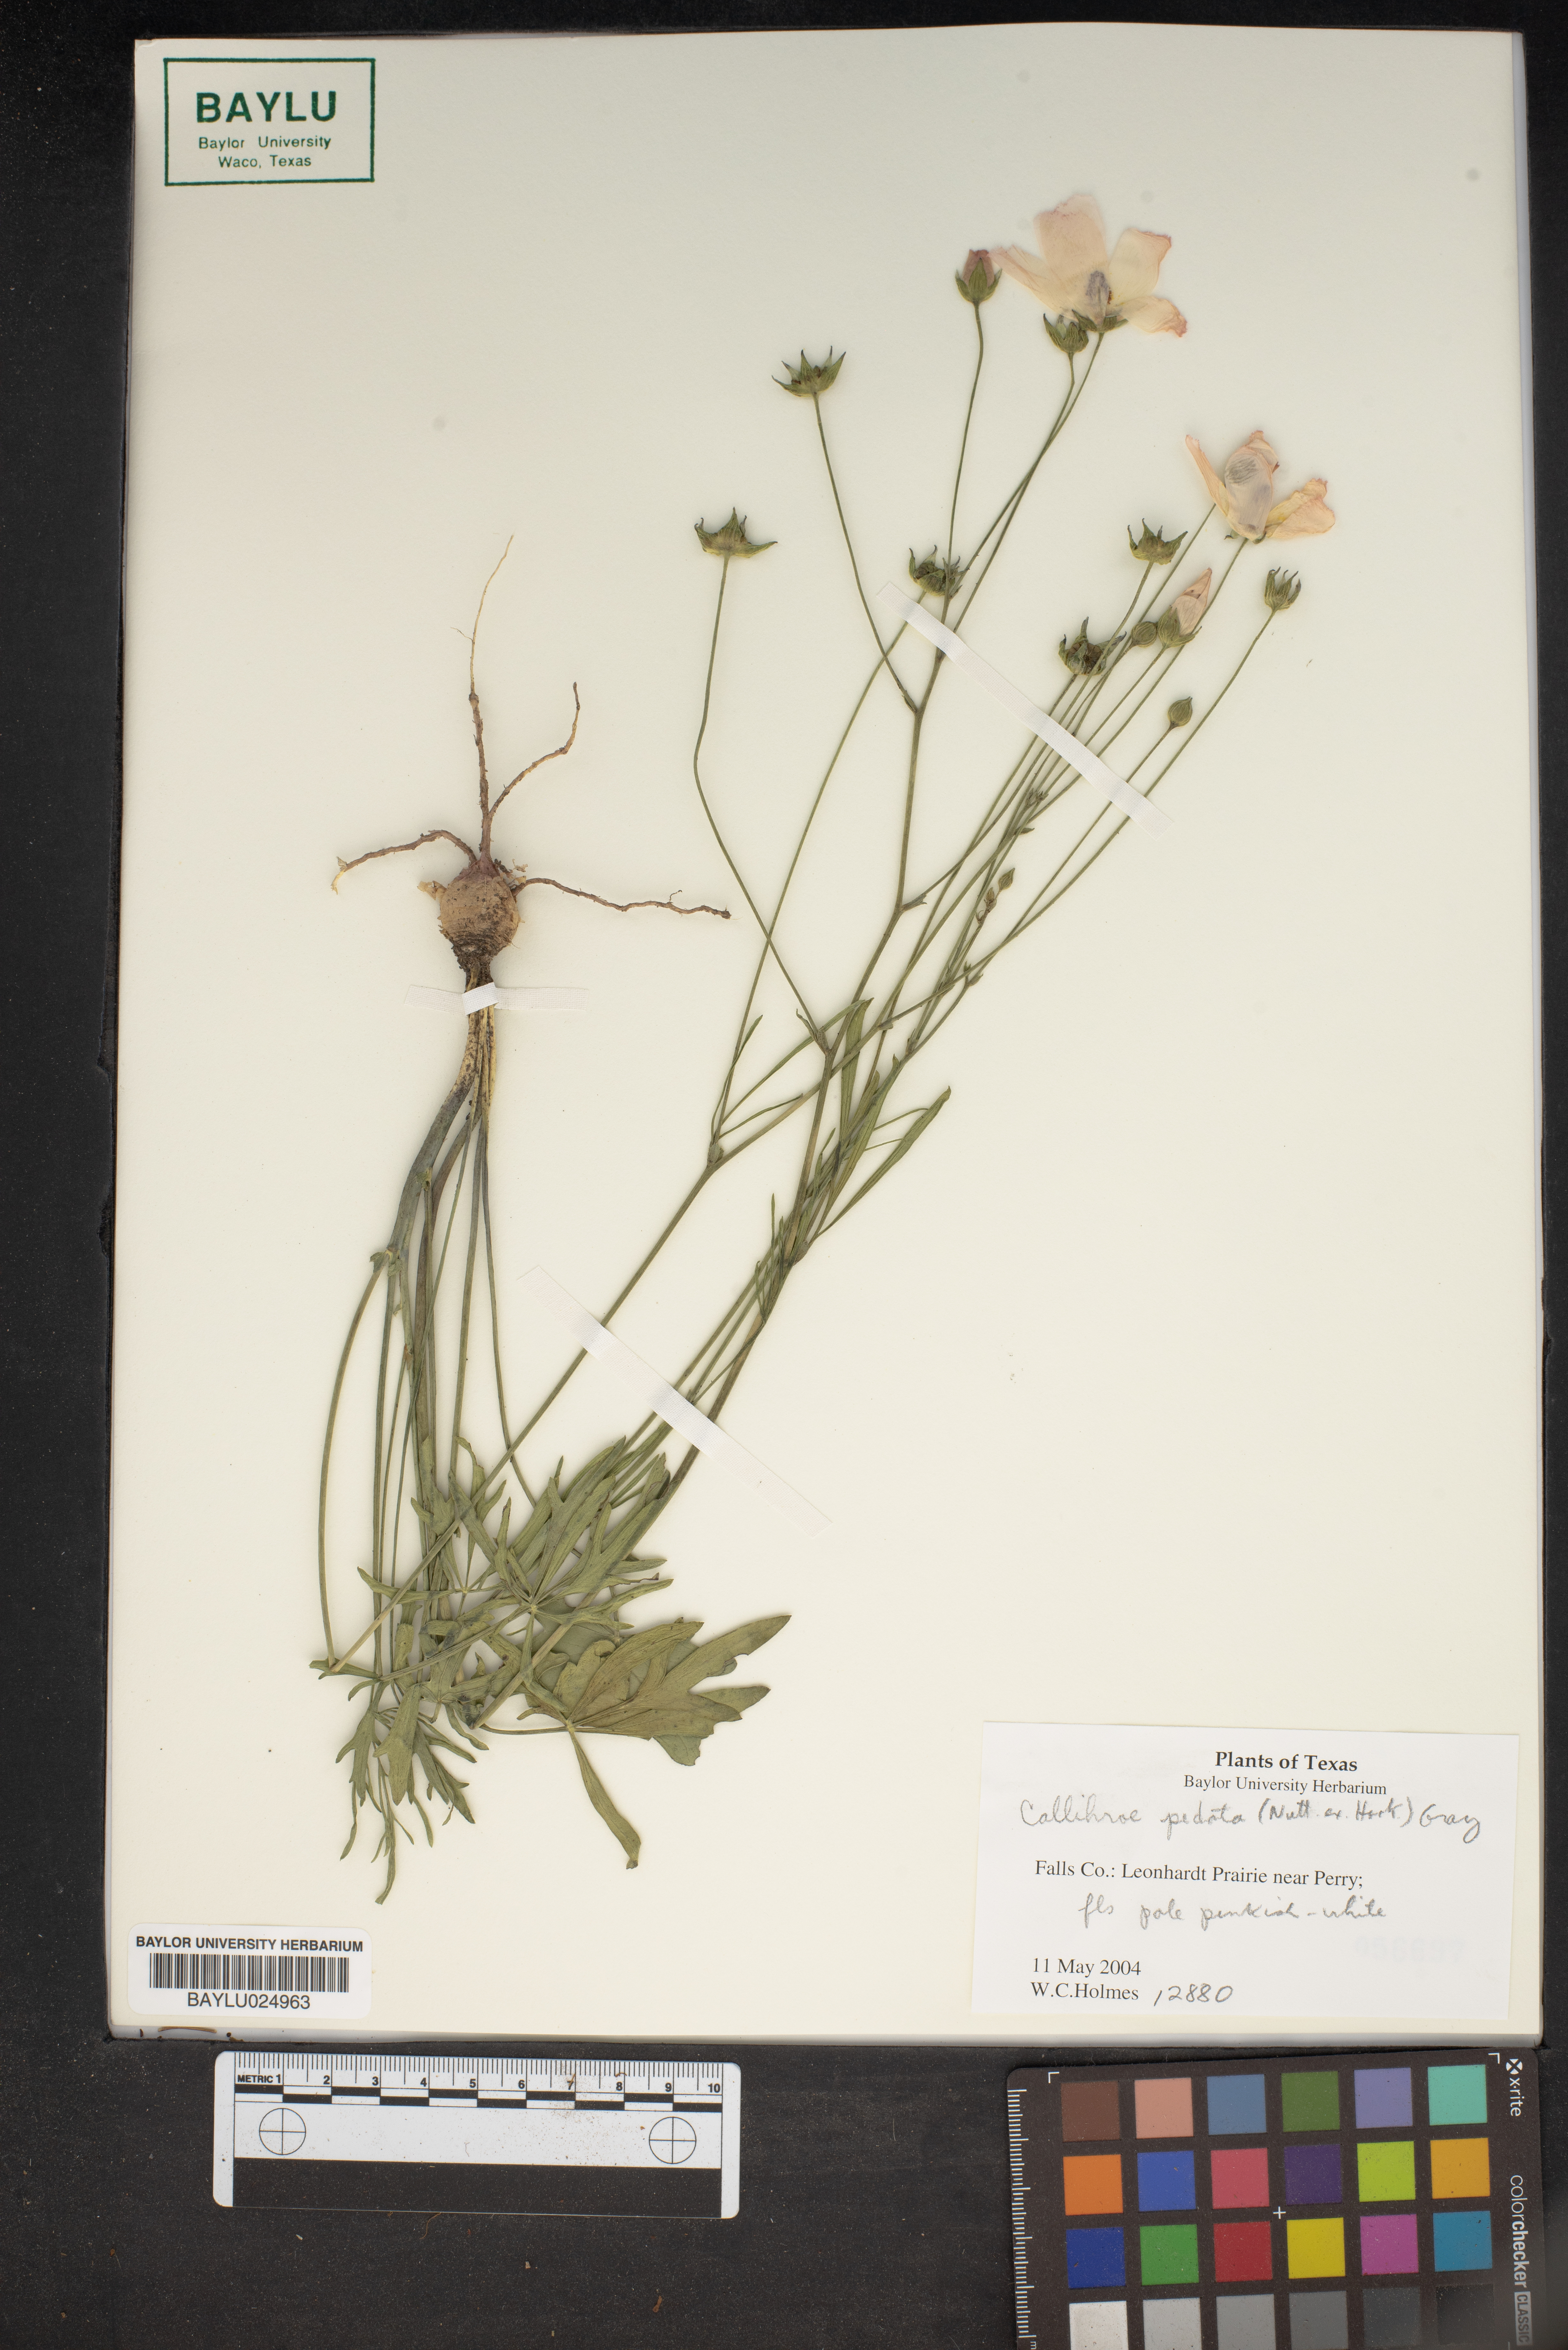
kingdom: Plantae
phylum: Tracheophyta
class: Magnoliopsida
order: Malvales
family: Malvaceae
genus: Callirhoe
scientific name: Callirhoe pedata
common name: Finger poppy-mallow
